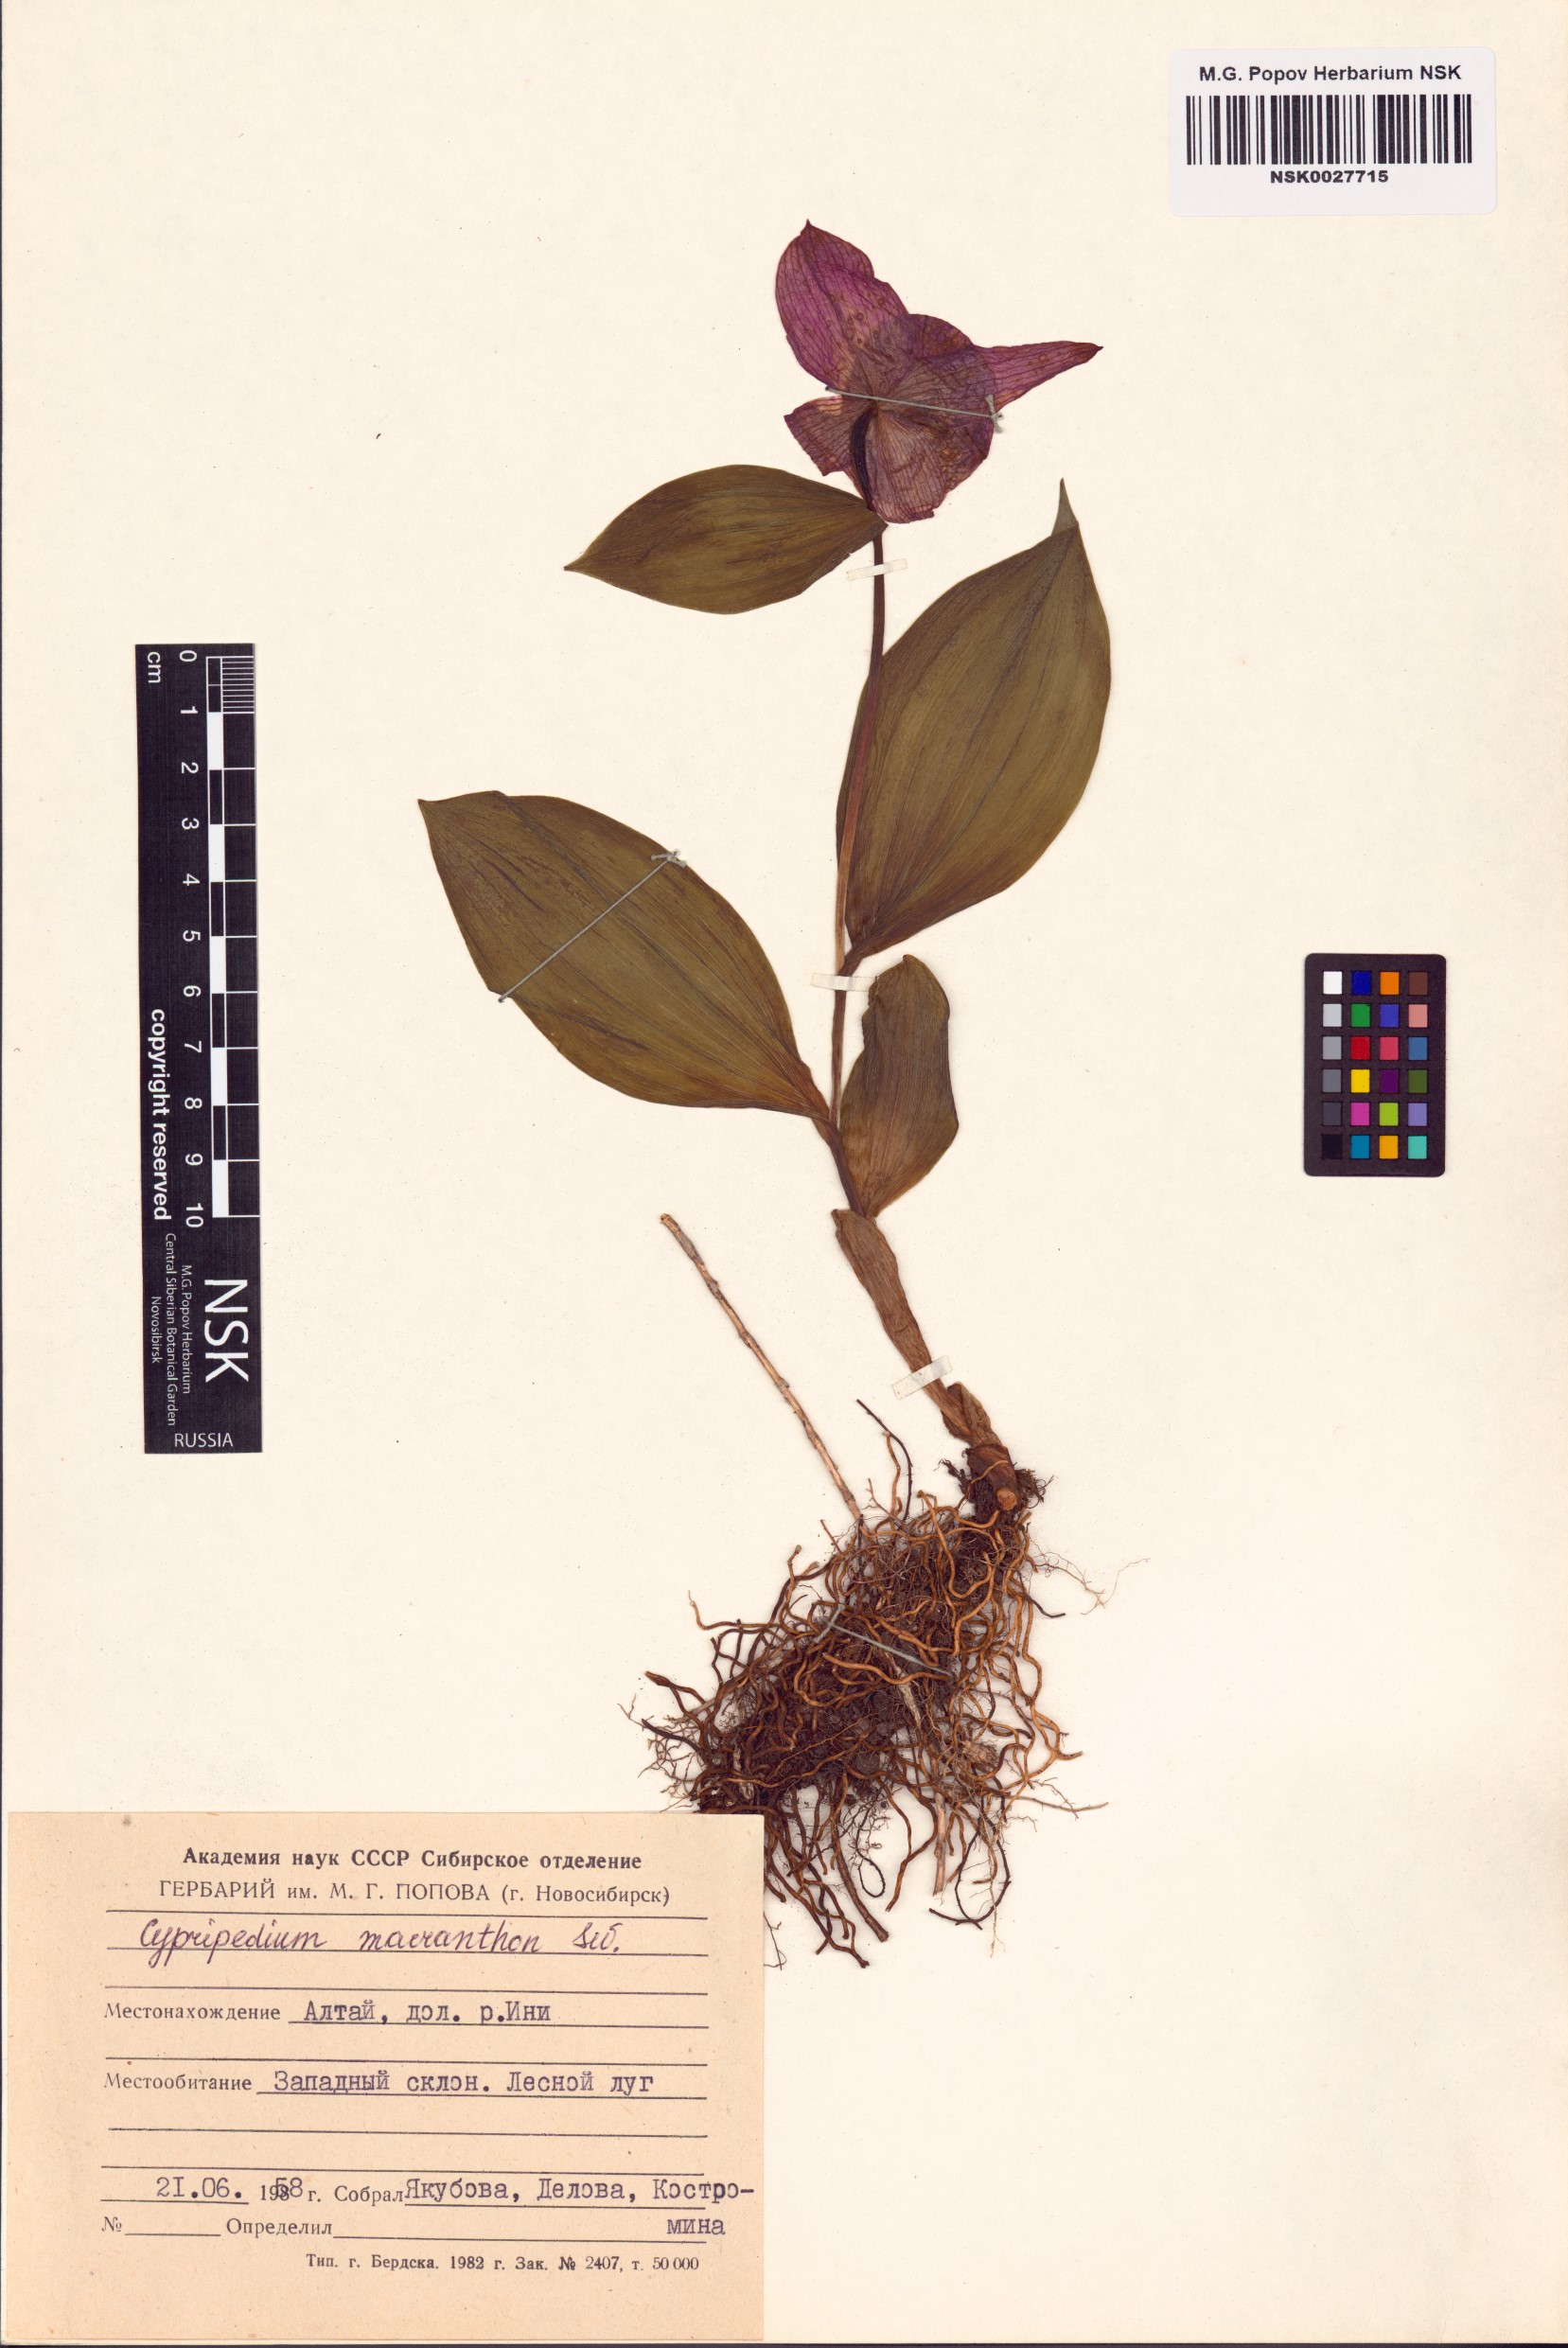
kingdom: Plantae
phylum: Tracheophyta
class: Liliopsida
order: Asparagales
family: Orchidaceae
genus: Cypripedium
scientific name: Cypripedium macranthos
